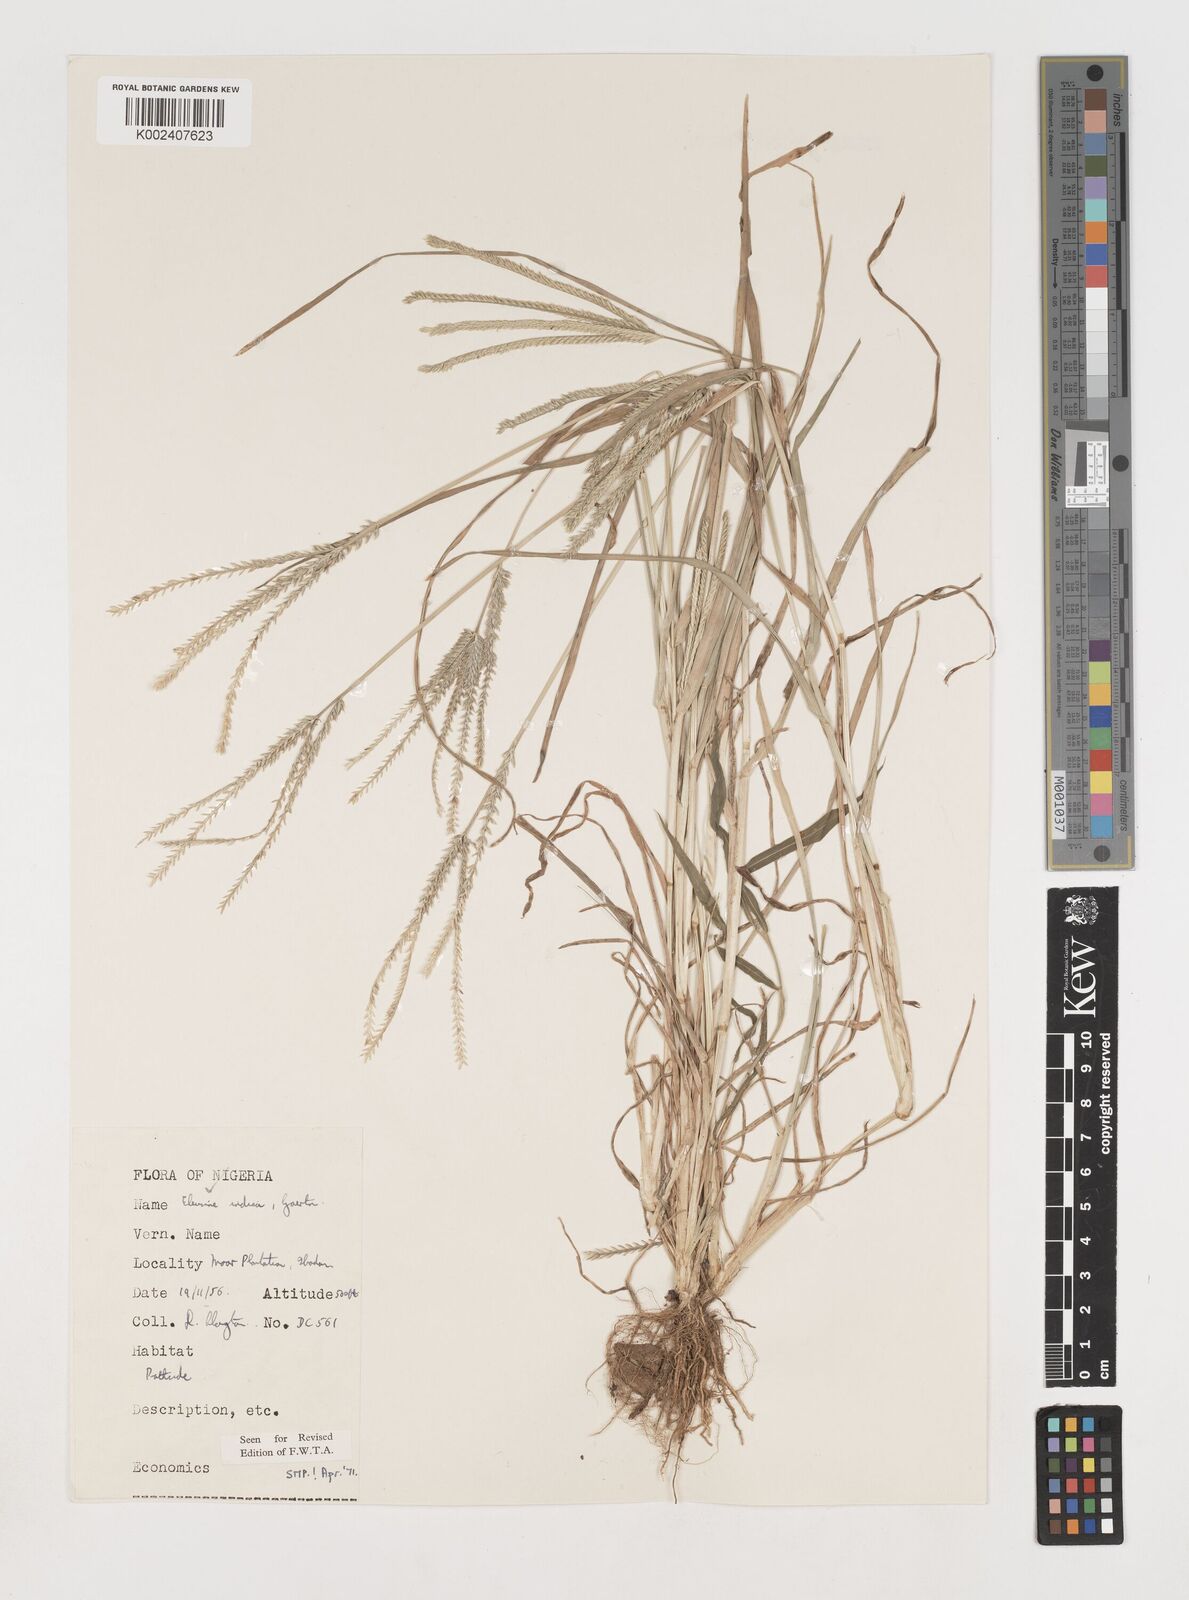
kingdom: Plantae
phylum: Tracheophyta
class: Liliopsida
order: Poales
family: Poaceae
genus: Eleusine
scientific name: Eleusine indica
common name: Yard-grass
